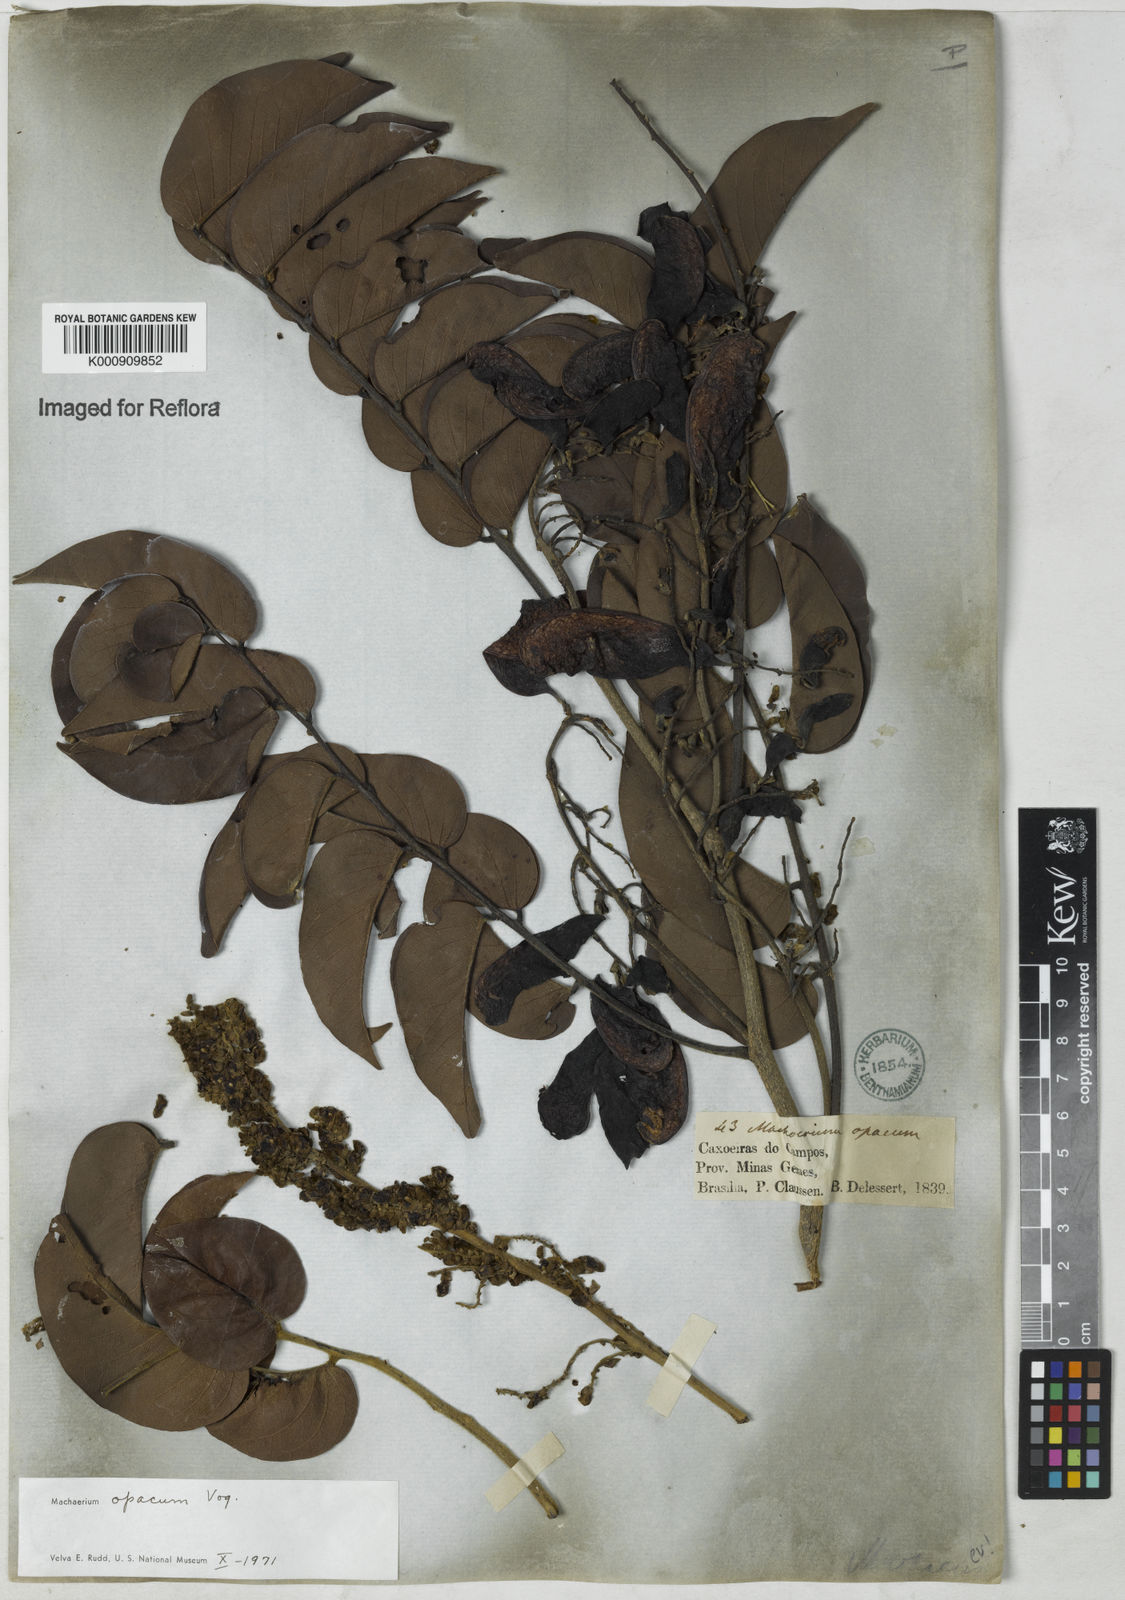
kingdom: Plantae
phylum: Tracheophyta
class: Magnoliopsida
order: Fabales
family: Fabaceae
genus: Machaerium
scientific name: Machaerium opacum
